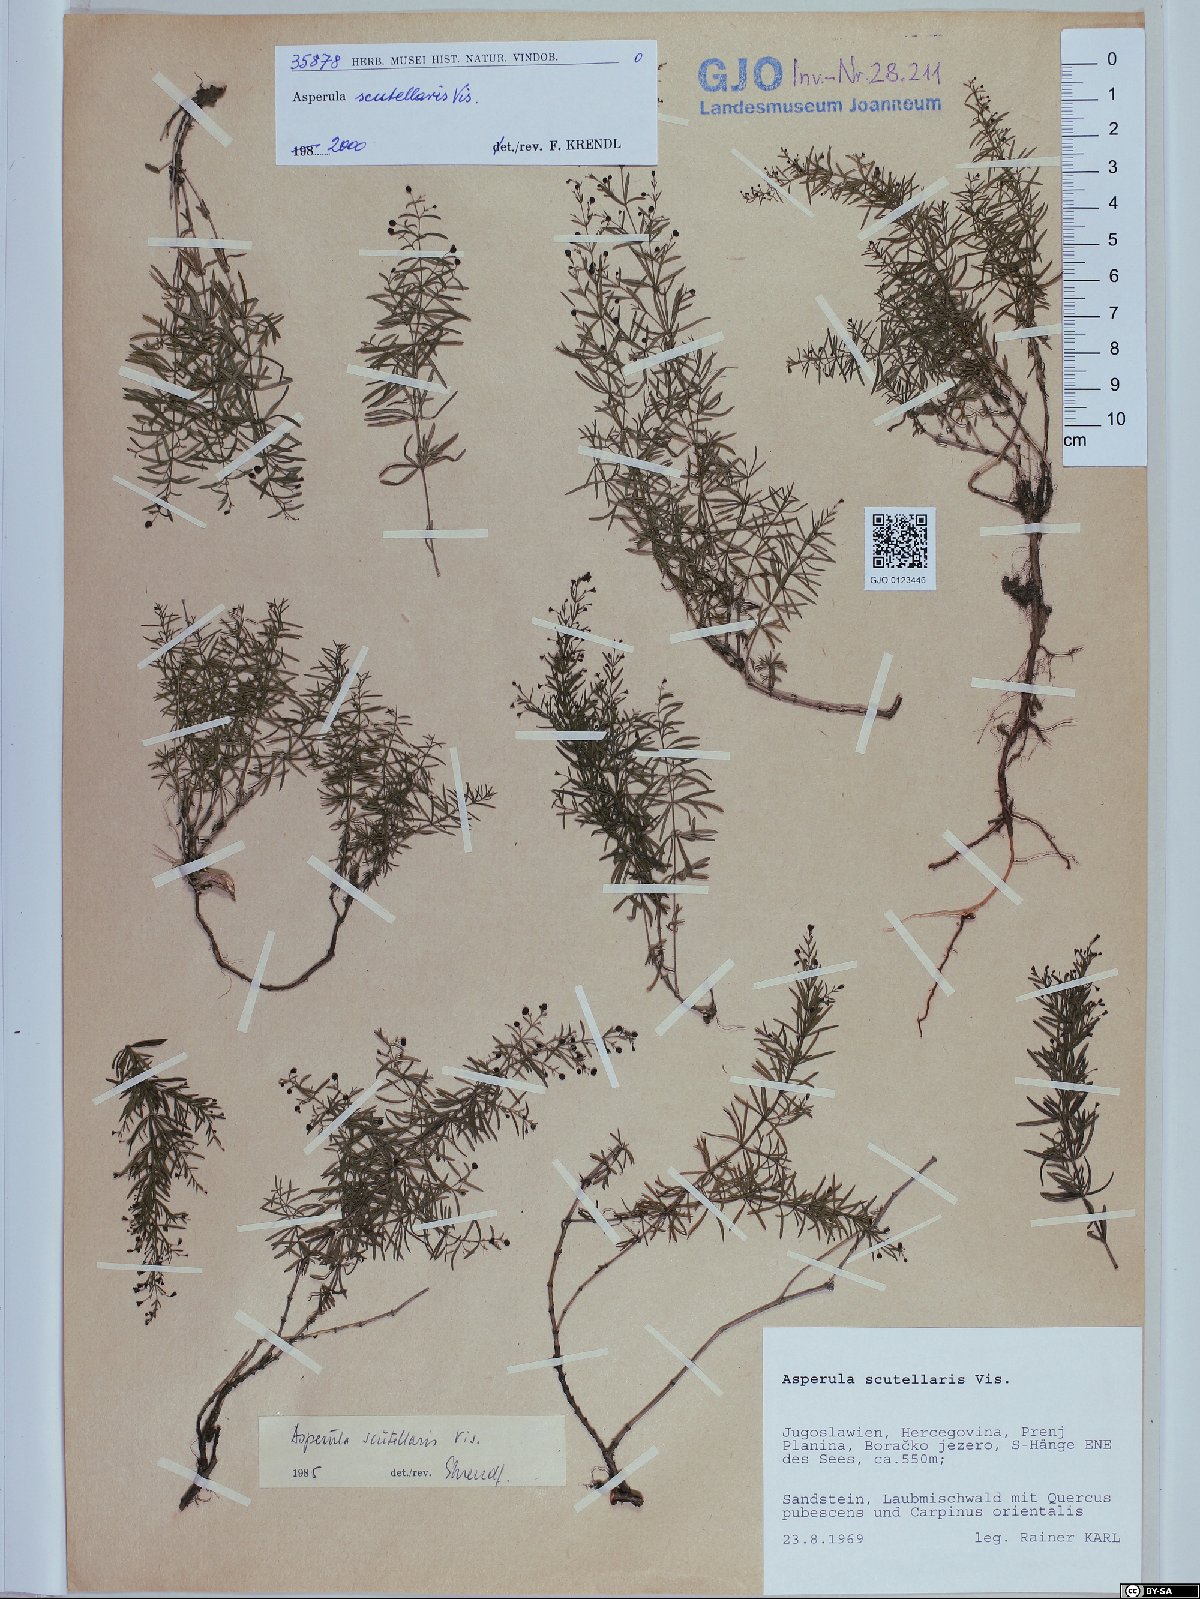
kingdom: Plantae
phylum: Tracheophyta
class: Magnoliopsida
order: Gentianales
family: Rubiaceae
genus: Thliphthisa
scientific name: Thliphthisa rupestris
